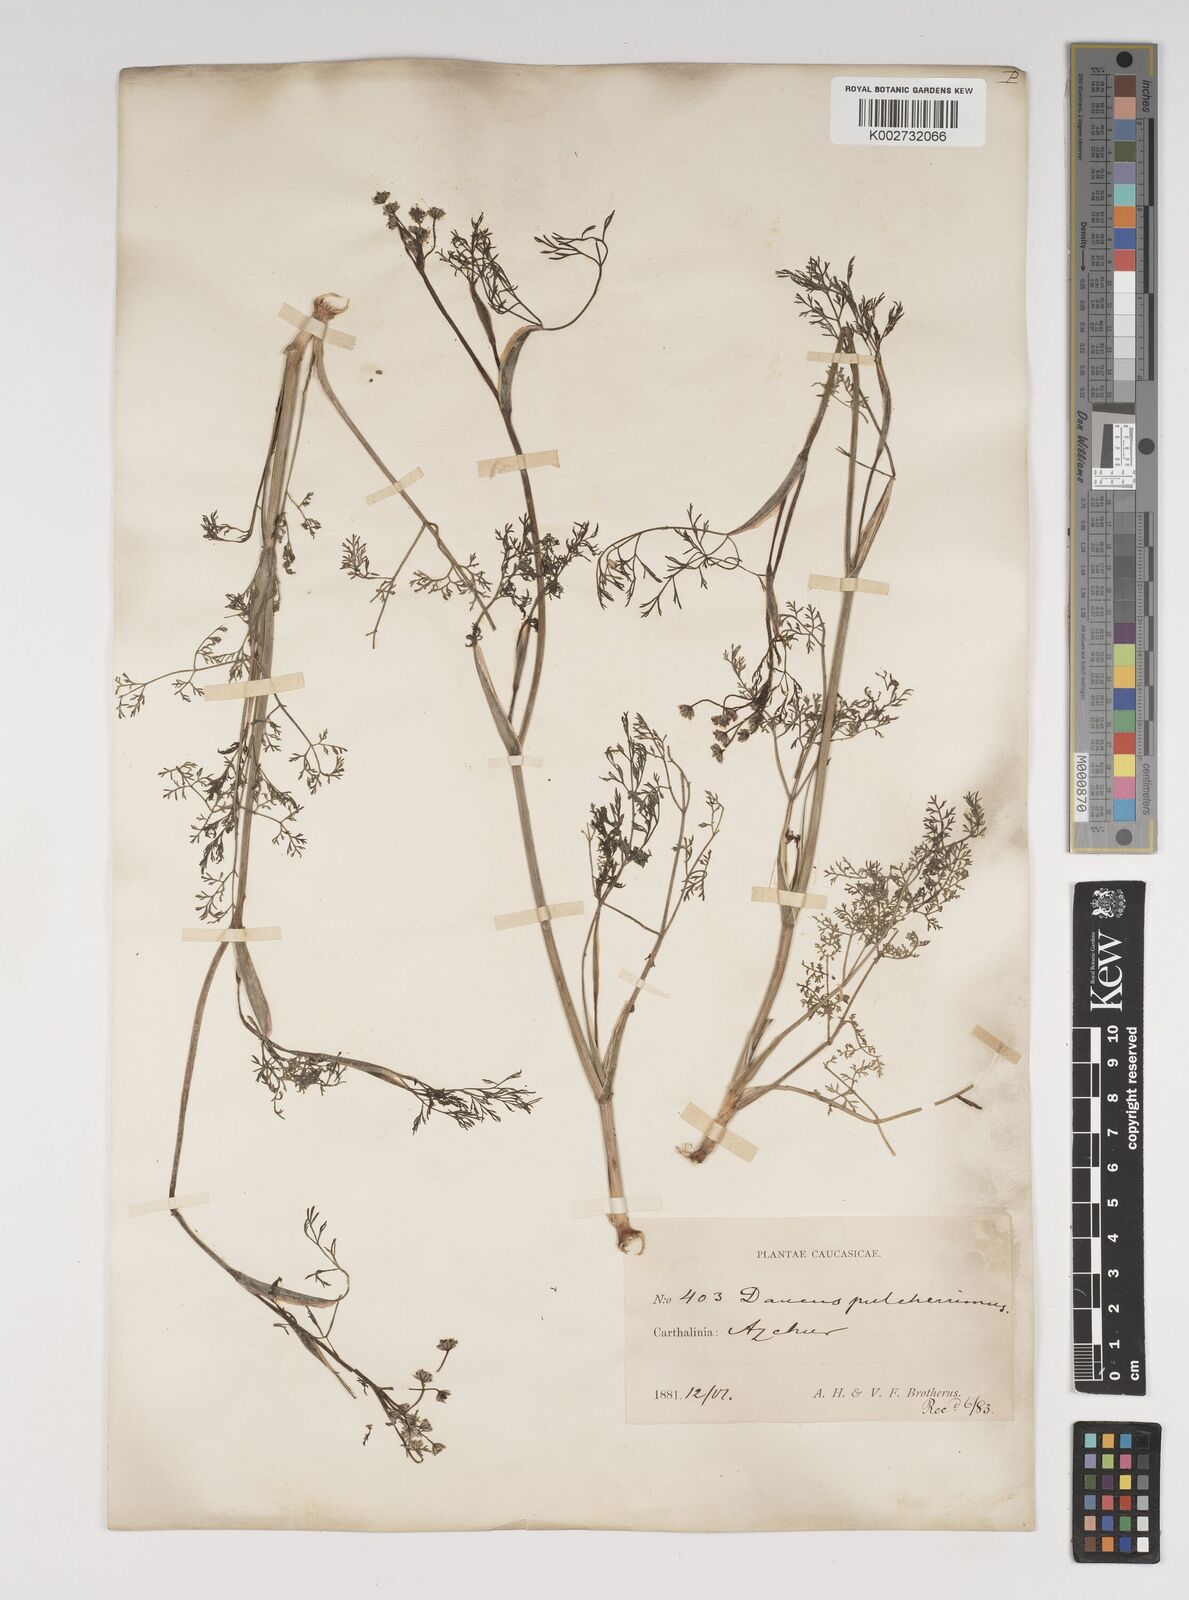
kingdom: Plantae
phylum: Tracheophyta
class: Magnoliopsida
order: Apiales
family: Apiaceae
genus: Astrodaucus
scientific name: Astrodaucus
